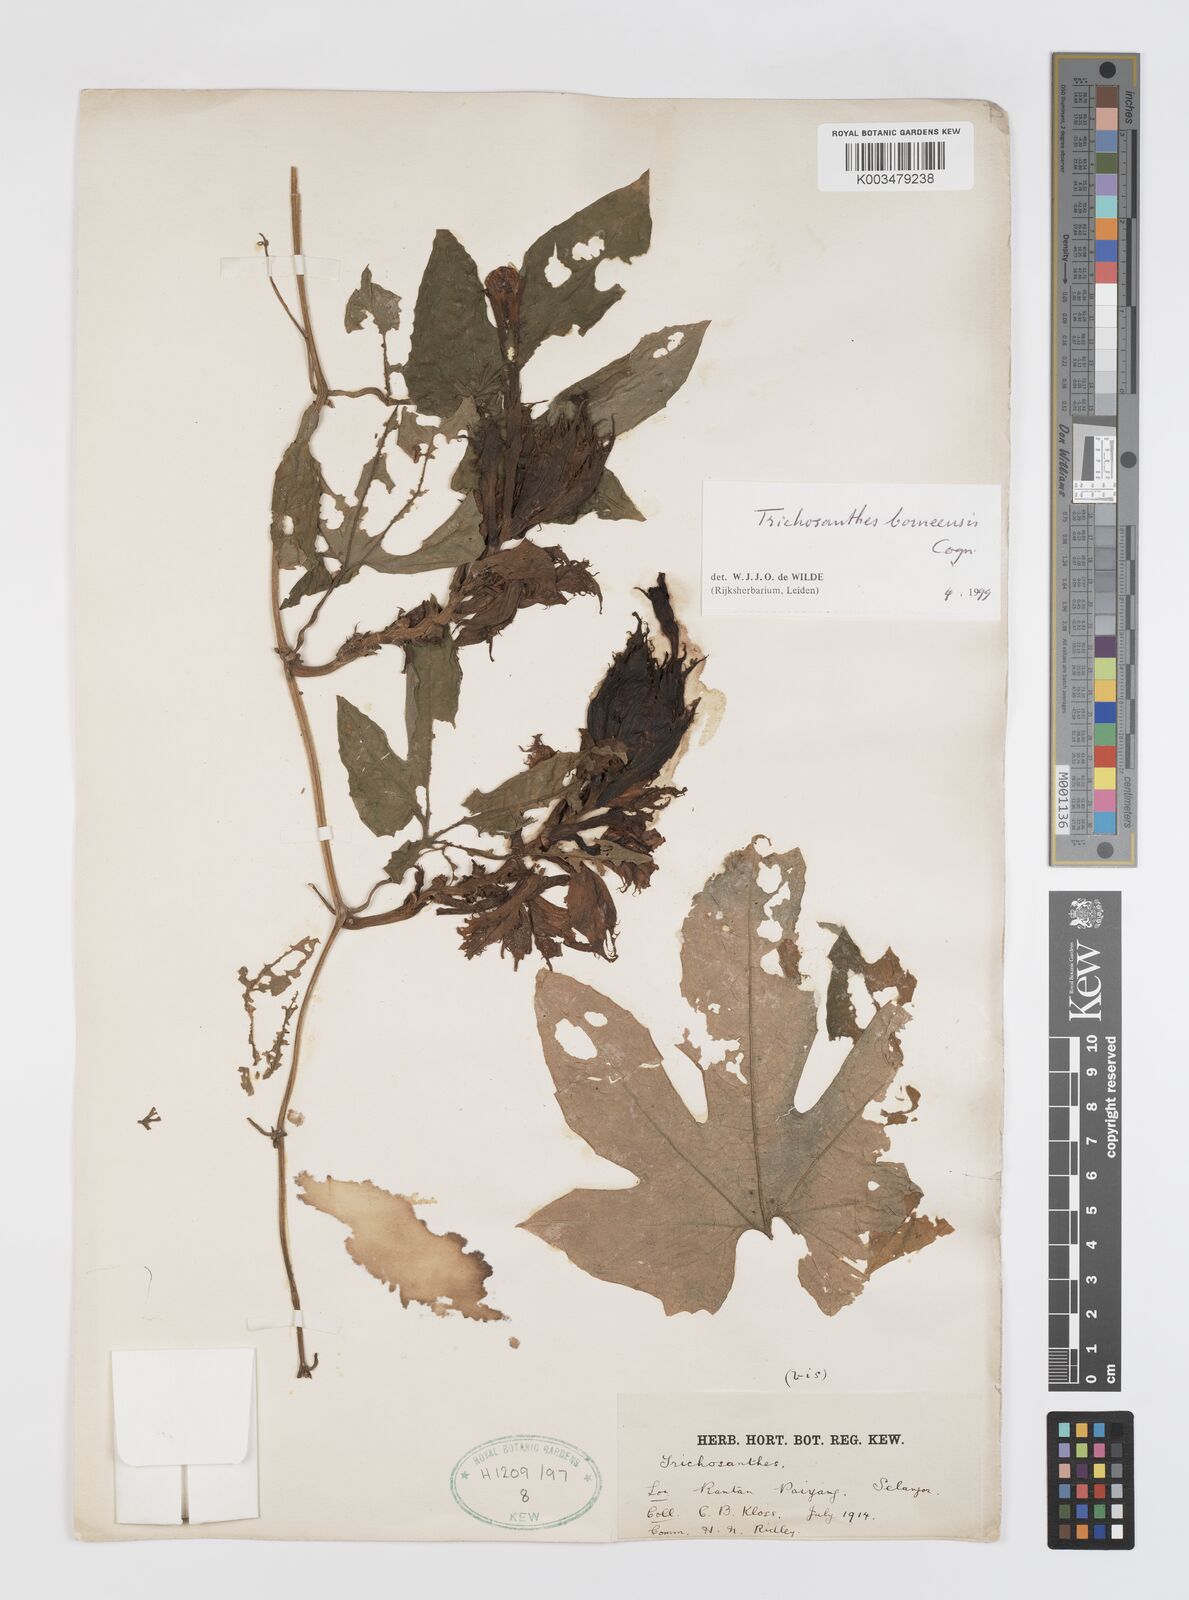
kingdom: Plantae
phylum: Tracheophyta
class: Magnoliopsida
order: Cucurbitales
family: Cucurbitaceae
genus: Trichosanthes
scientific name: Trichosanthes borneensis
